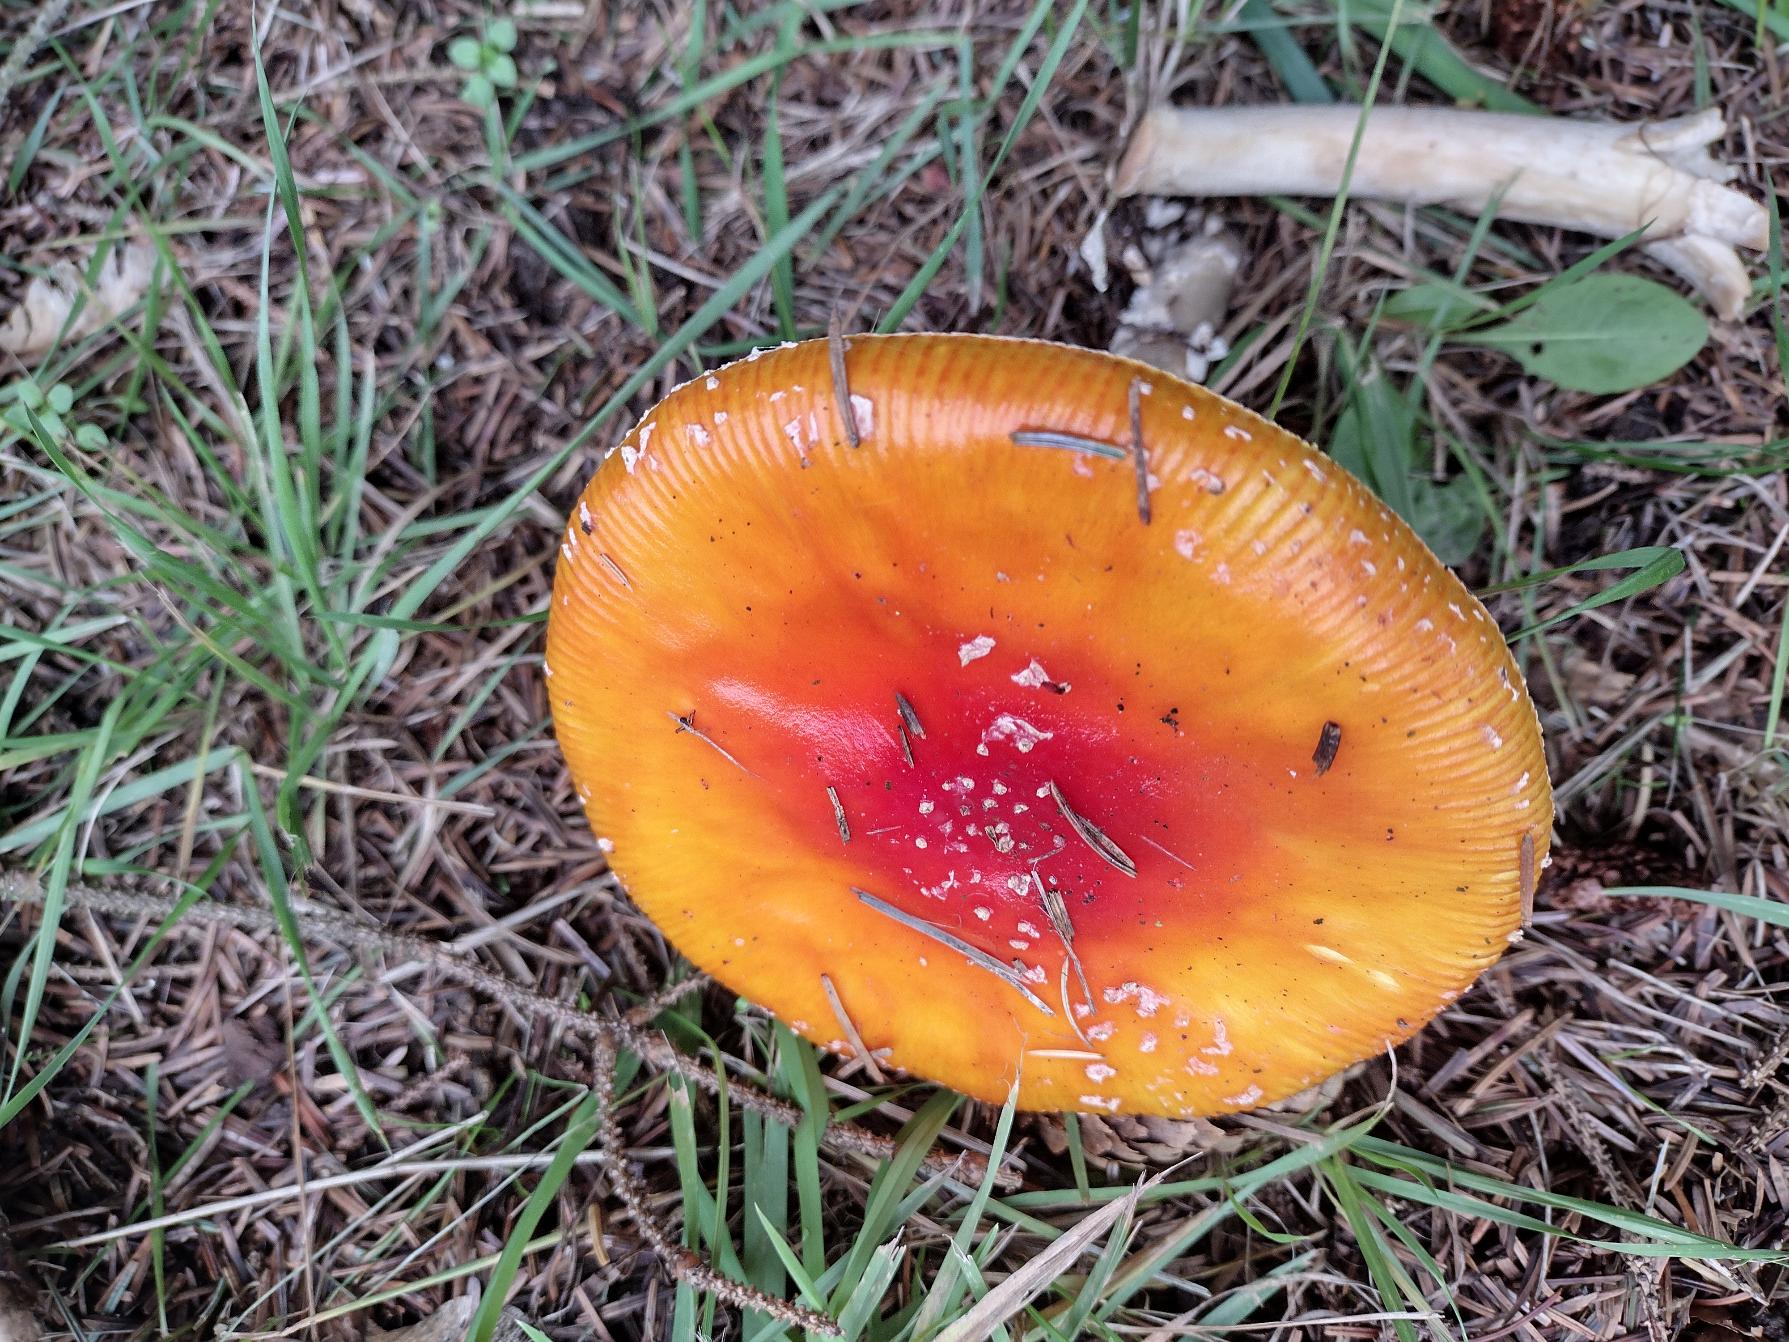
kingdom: Fungi
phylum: Basidiomycota
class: Agaricomycetes
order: Agaricales
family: Amanitaceae
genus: Amanita
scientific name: Amanita muscaria
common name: Rød fluesvamp
